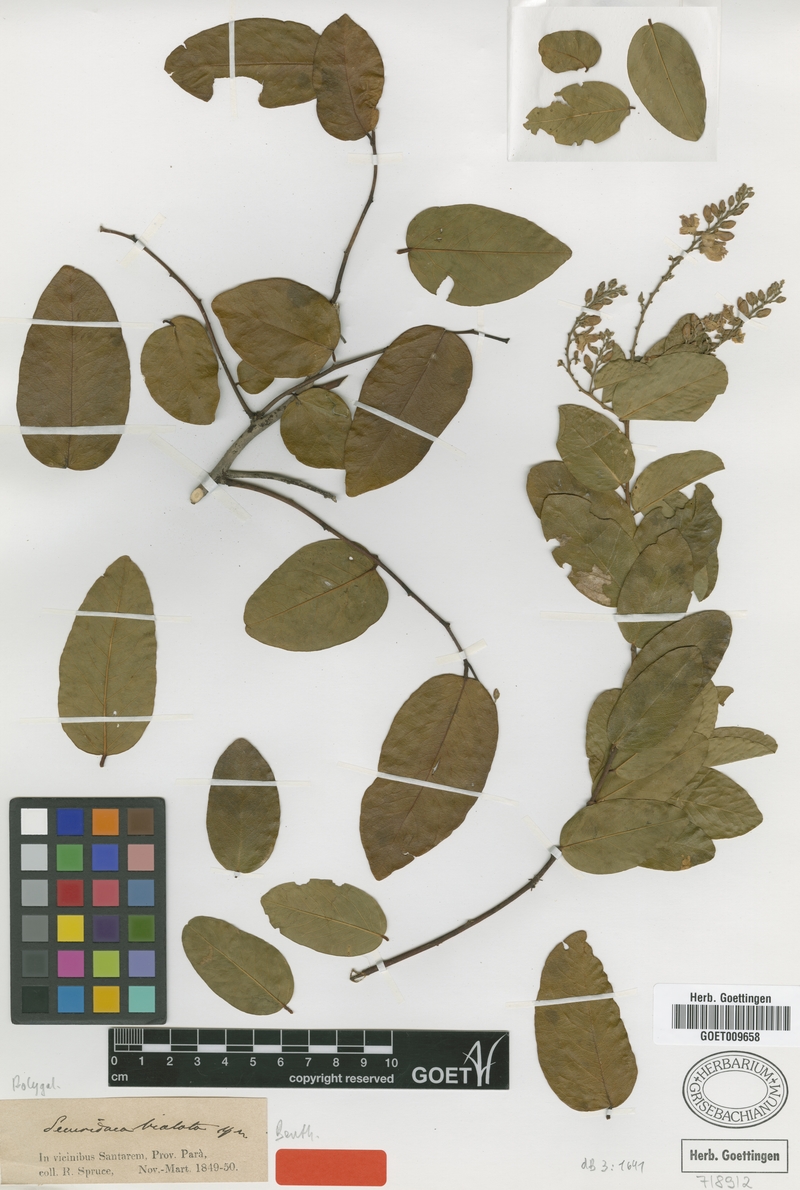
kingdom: Plantae
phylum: Tracheophyta
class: Magnoliopsida
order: Fabales
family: Polygalaceae
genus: Securidaca
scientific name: Securidaca bialata
